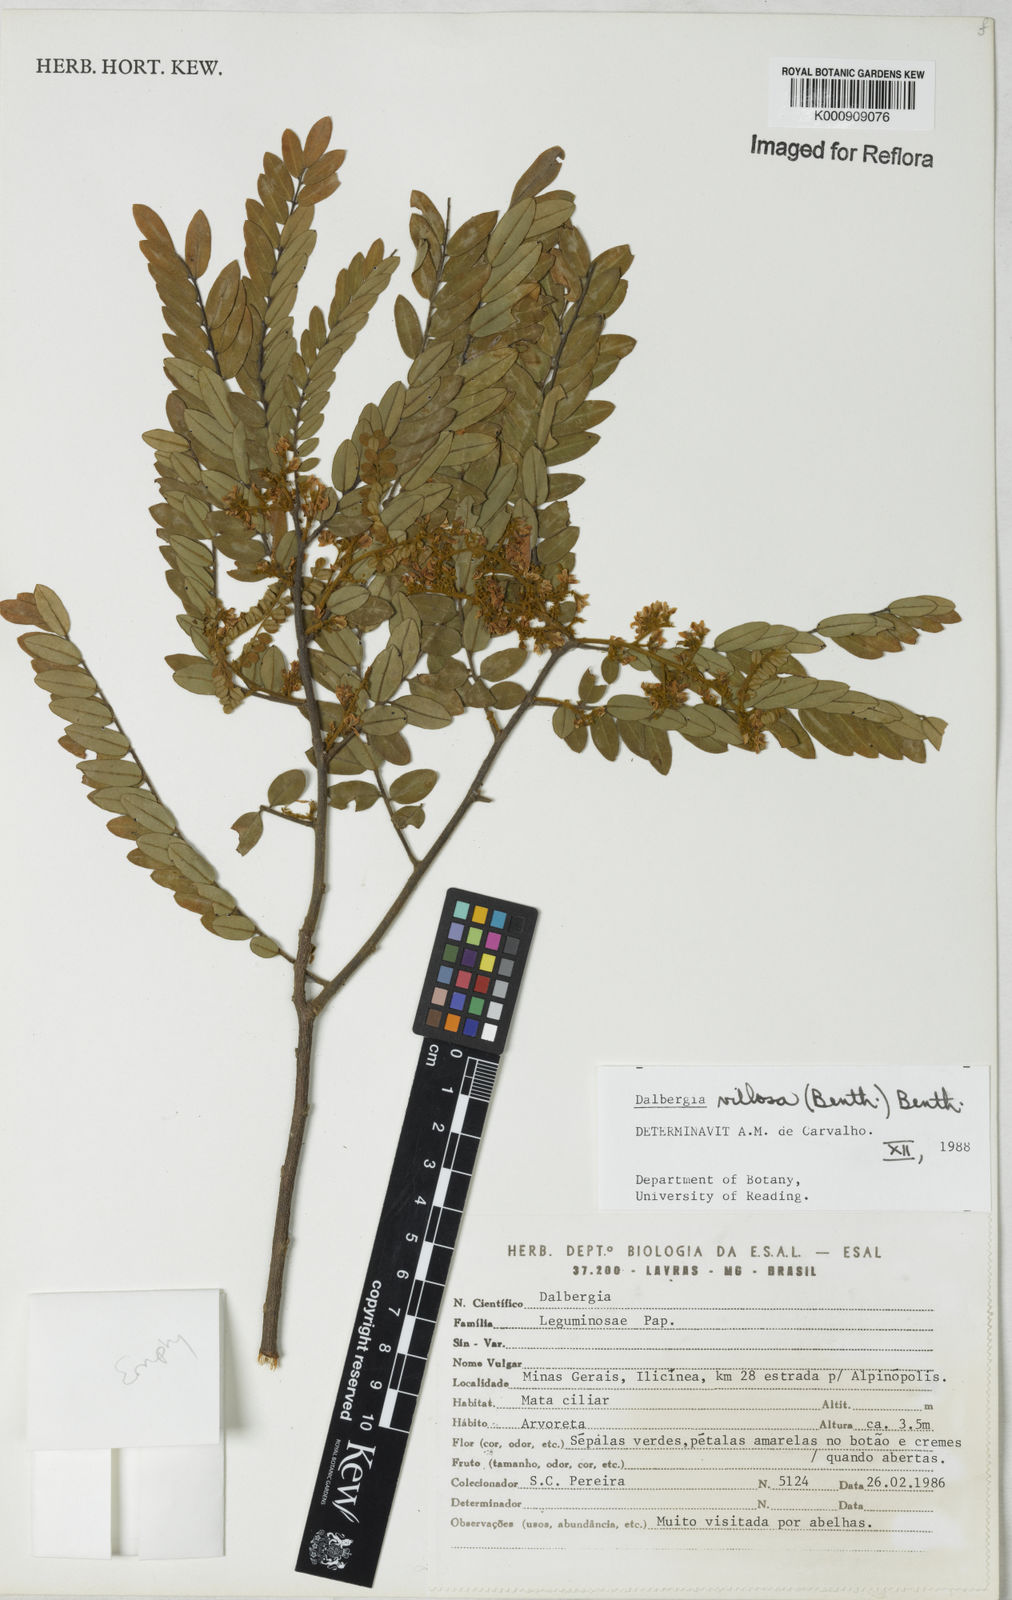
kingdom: Plantae
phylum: Tracheophyta
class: Magnoliopsida
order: Fabales
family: Fabaceae
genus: Dalbergia
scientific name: Dalbergia villosa
